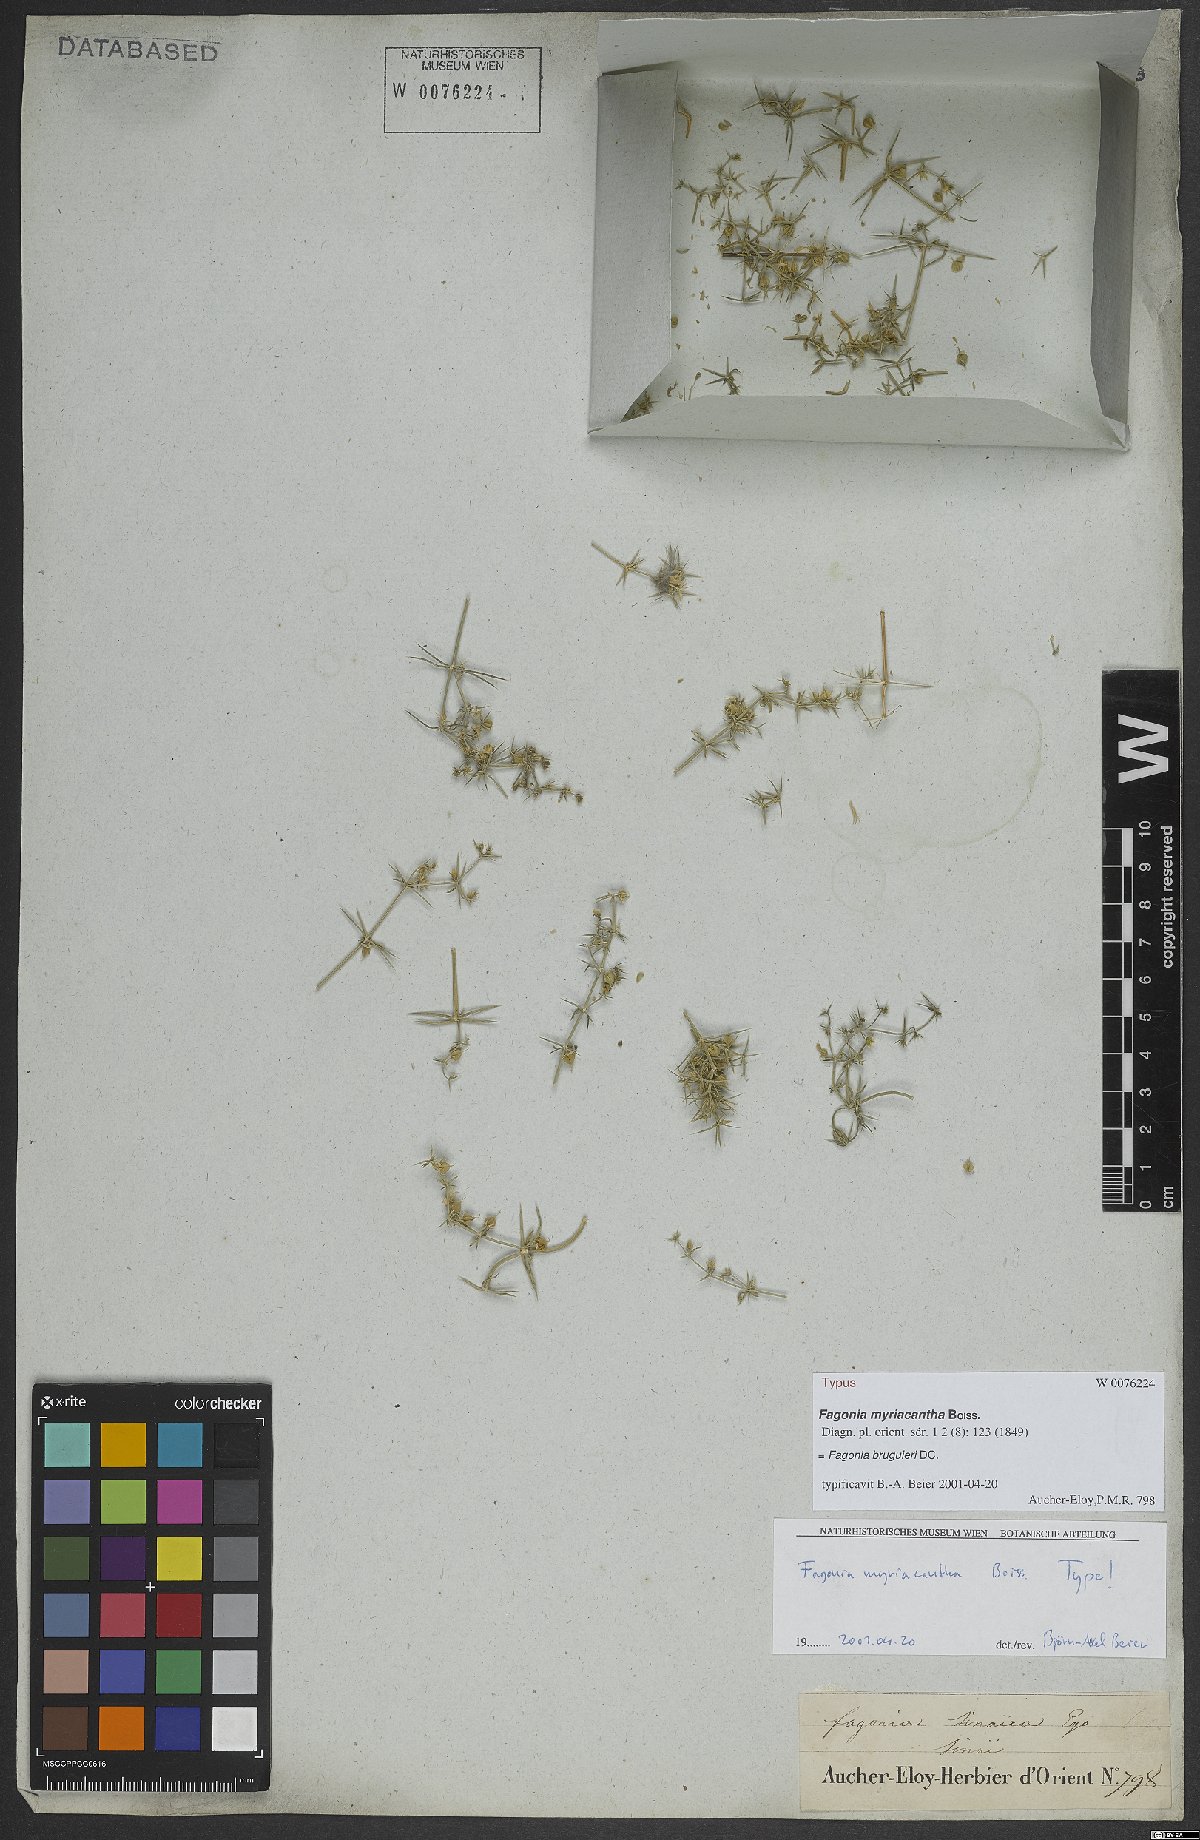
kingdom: Plantae
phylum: Tracheophyta
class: Magnoliopsida
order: Zygophyllales
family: Zygophyllaceae
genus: Fagonia
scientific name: Fagonia bruguieri
